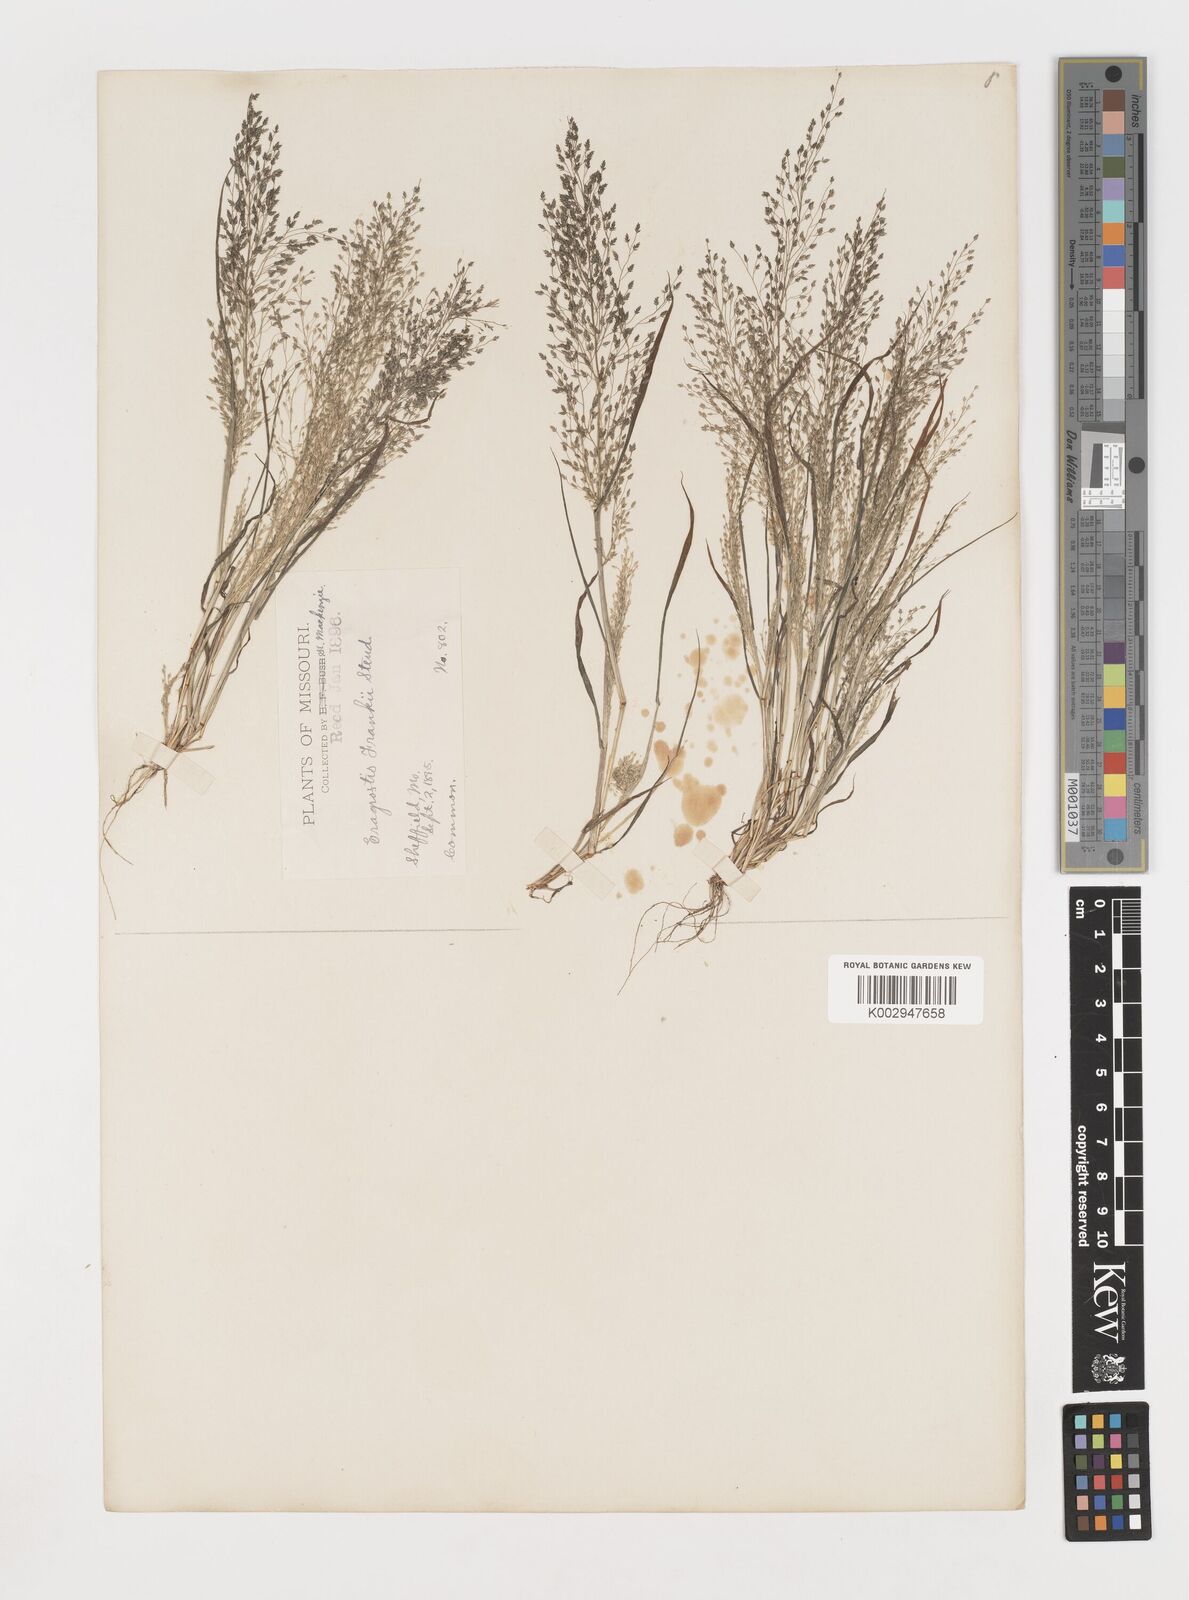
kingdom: Plantae
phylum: Tracheophyta
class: Liliopsida
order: Poales
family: Poaceae
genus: Eragrostis
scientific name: Eragrostis frankii
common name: Frank's lovegrass
